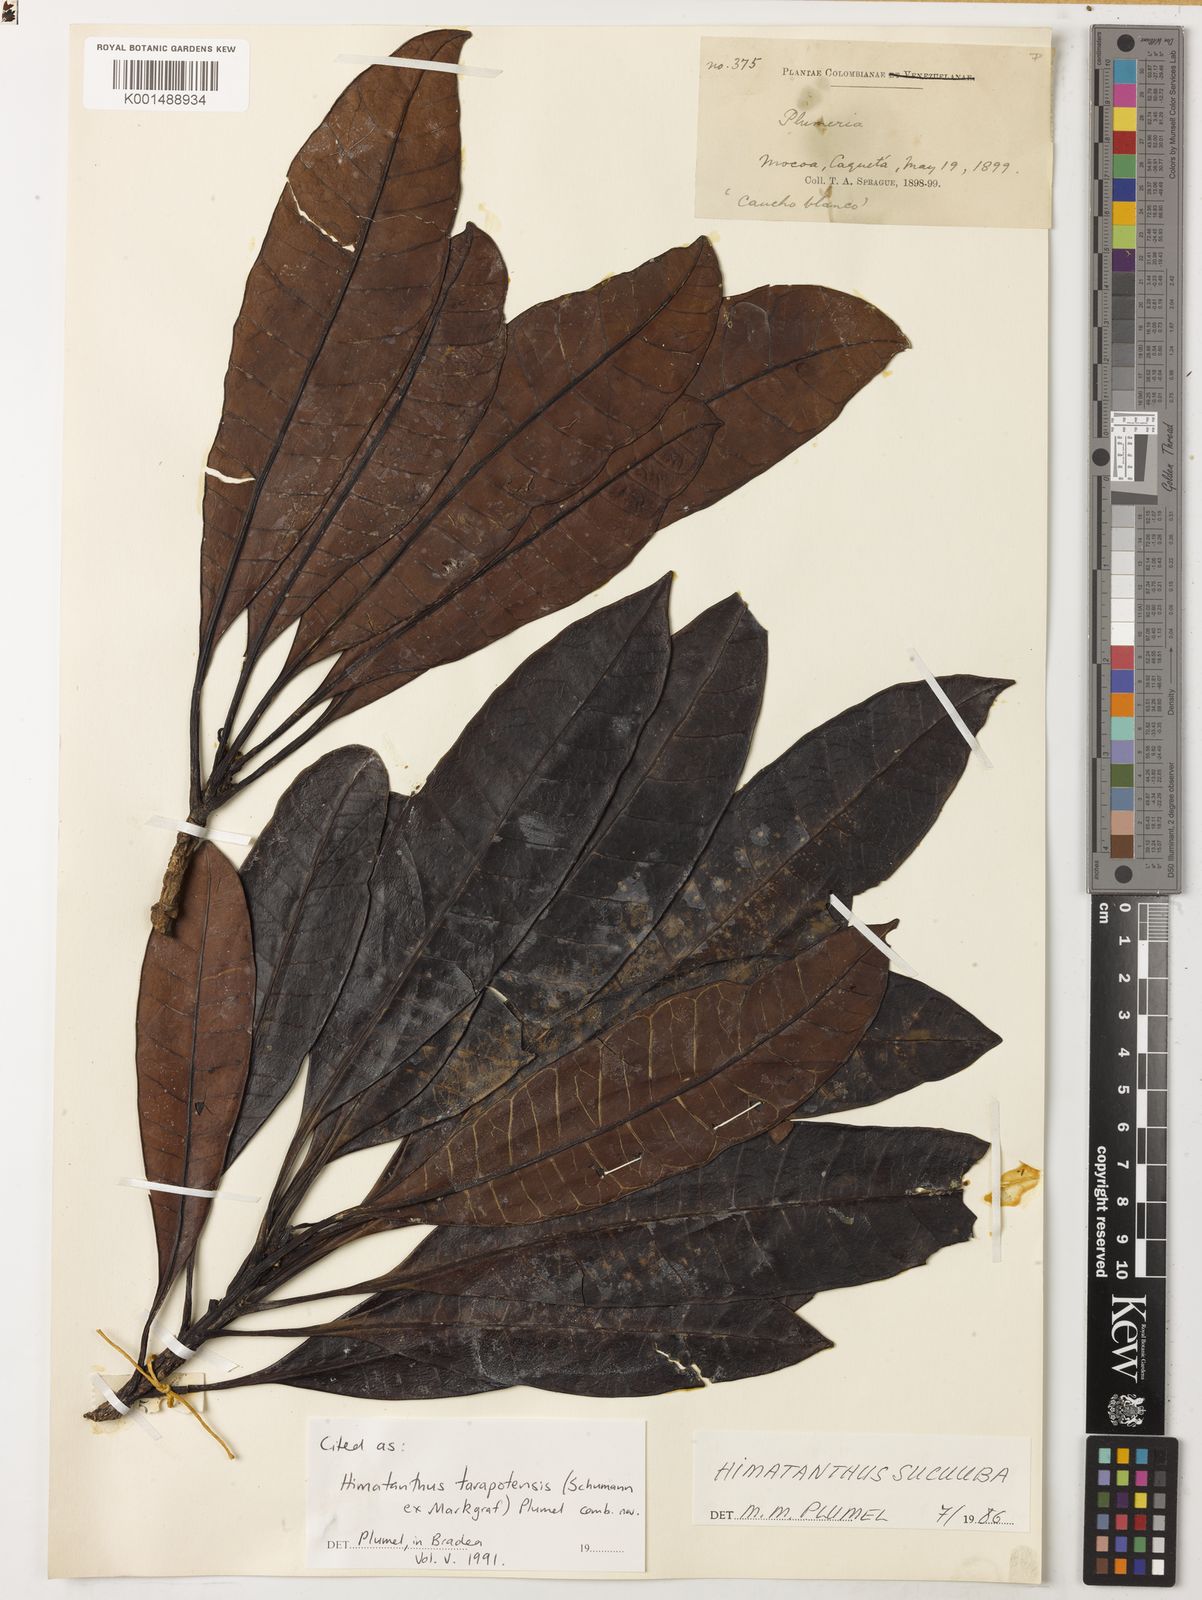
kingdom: Plantae
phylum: Tracheophyta
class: Magnoliopsida
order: Gentianales
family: Apocynaceae
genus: Himatanthus
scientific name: Himatanthus tarapotensis
